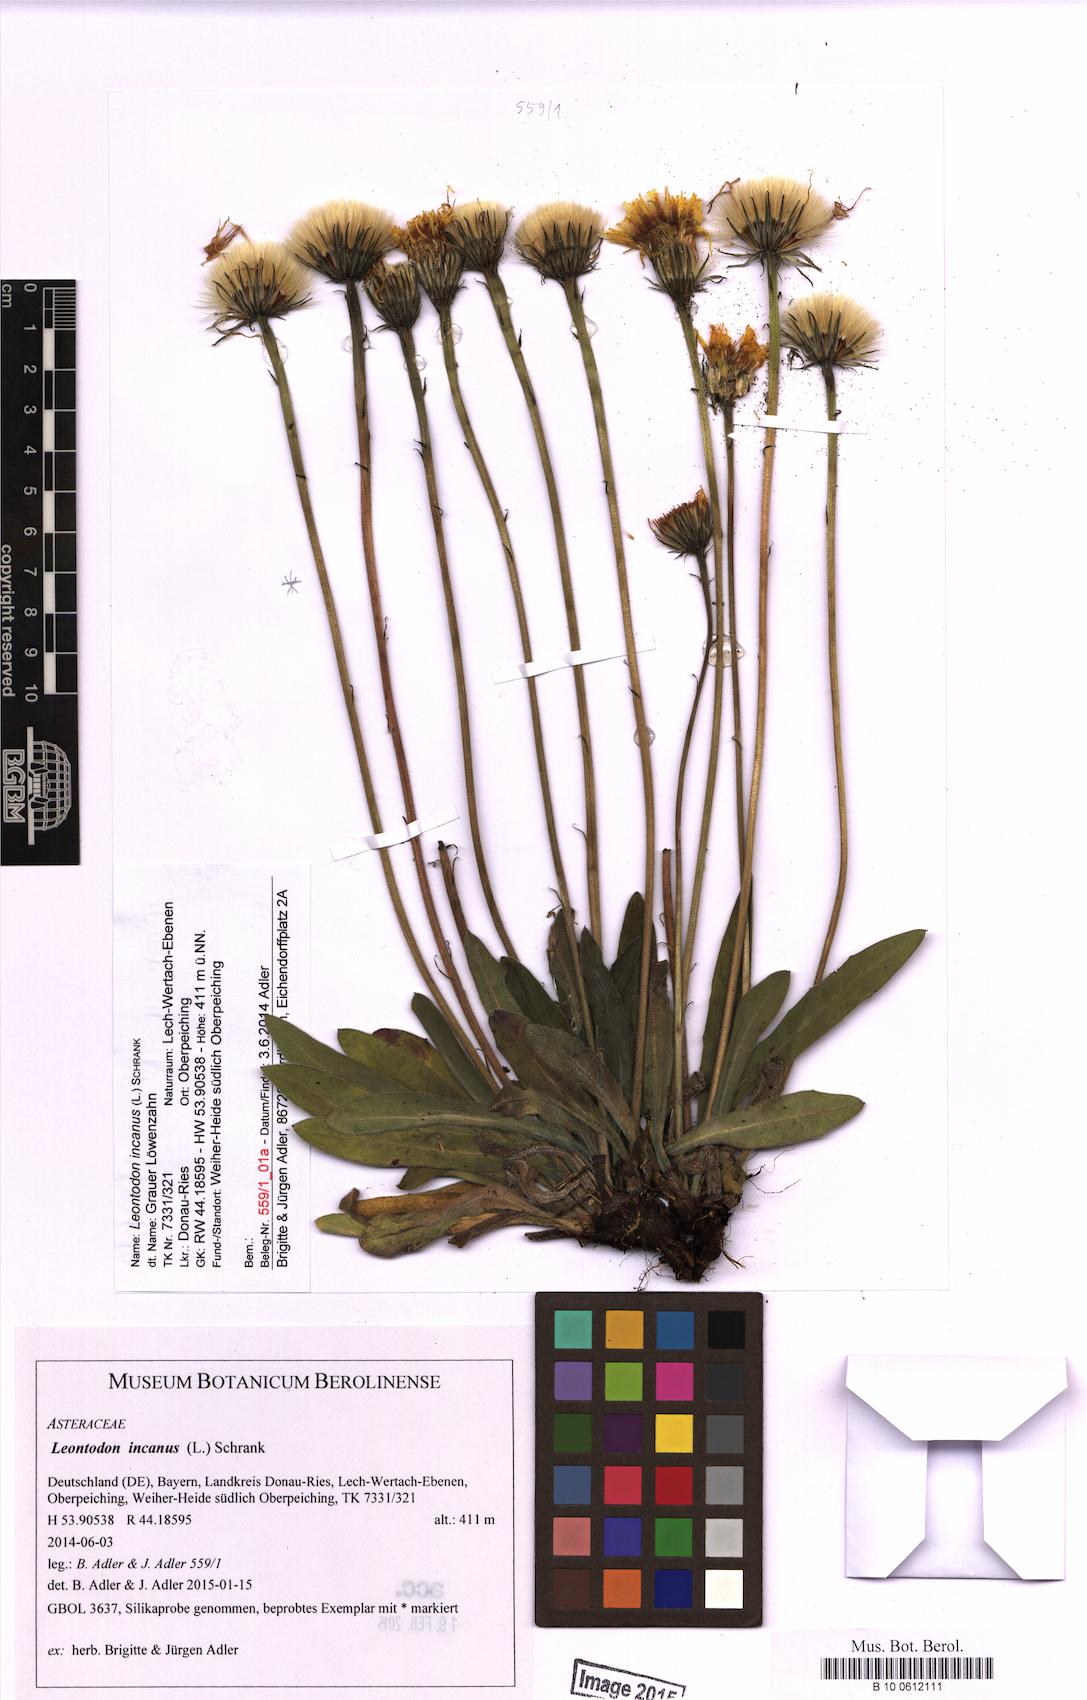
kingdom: Plantae
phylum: Tracheophyta
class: Magnoliopsida
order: Asterales
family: Asteraceae
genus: Leontodon
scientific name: Leontodon incanus
